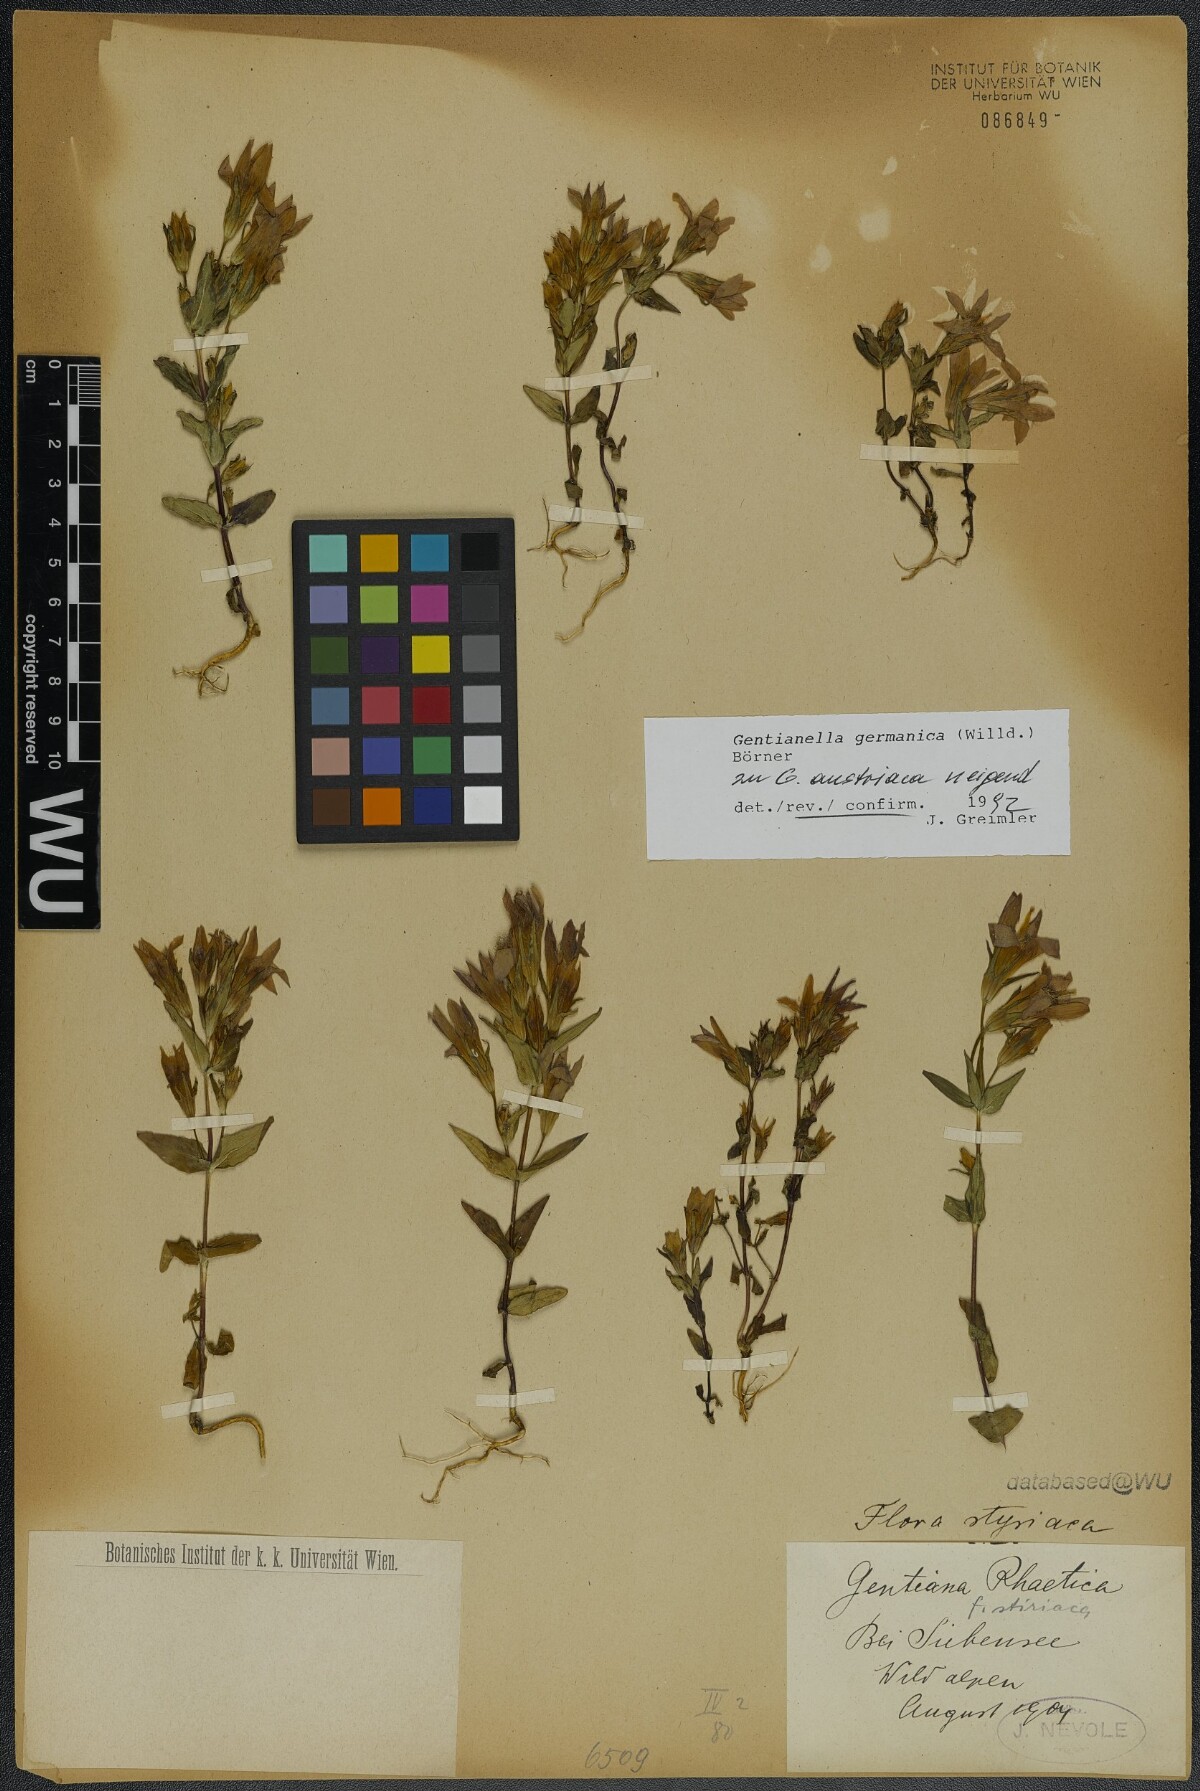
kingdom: Plantae
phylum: Tracheophyta
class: Magnoliopsida
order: Gentianales
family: Gentianaceae
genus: Gentianella
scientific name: Gentianella germanica
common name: Chiltern-gentian
